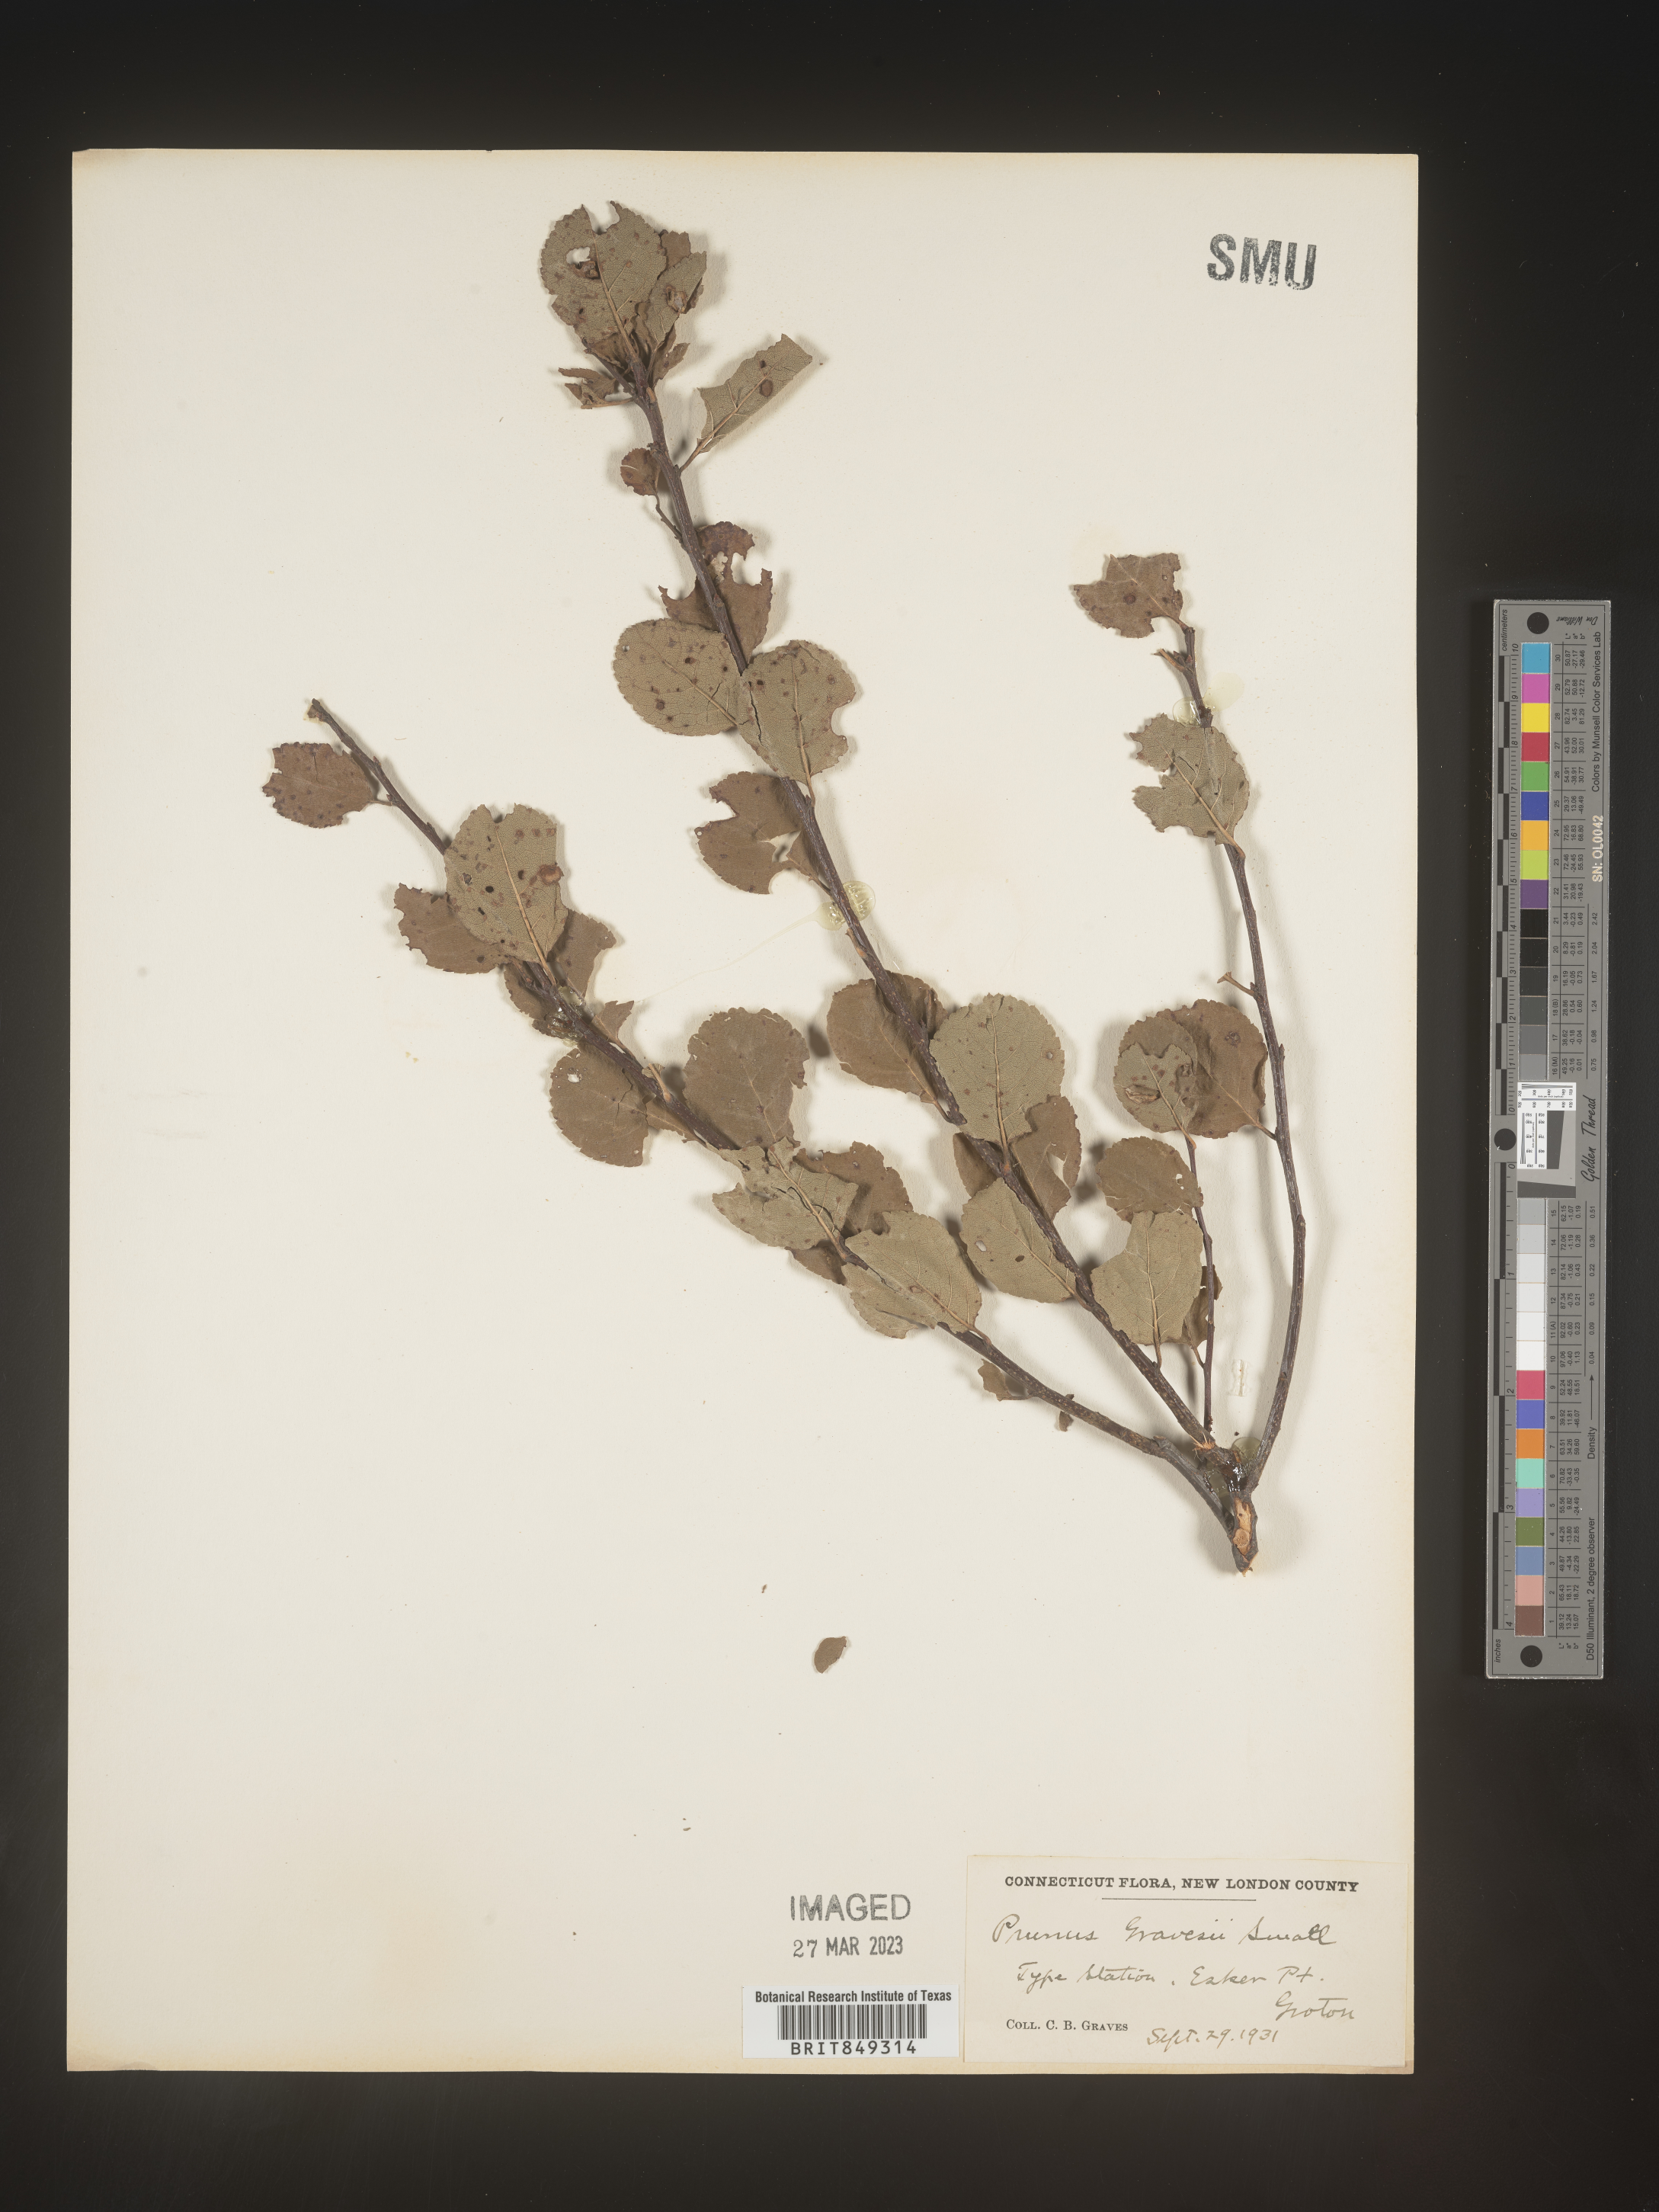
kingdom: Plantae
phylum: Tracheophyta
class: Magnoliopsida
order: Rosales
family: Rosaceae
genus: Prunus
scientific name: Prunus maritima
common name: Beach plum
